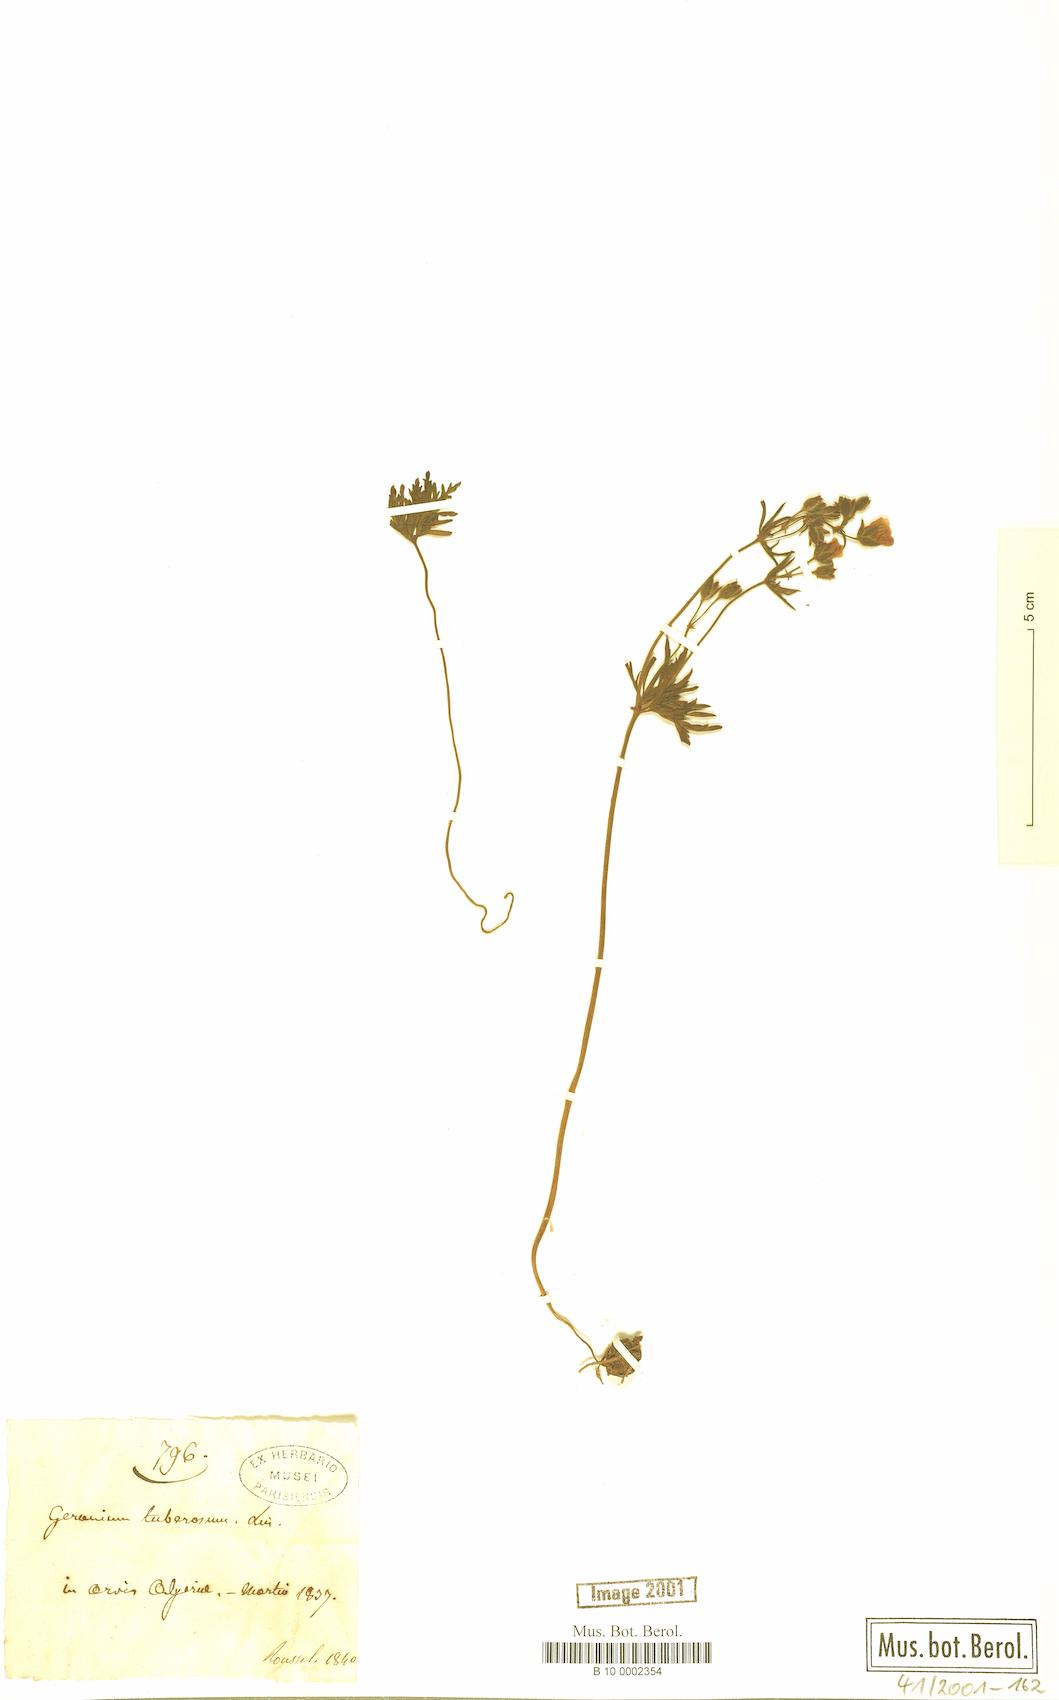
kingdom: Plantae
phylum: Tracheophyta
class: Magnoliopsida
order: Geraniales
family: Geraniaceae
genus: Geranium
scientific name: Geranium tuberosum
